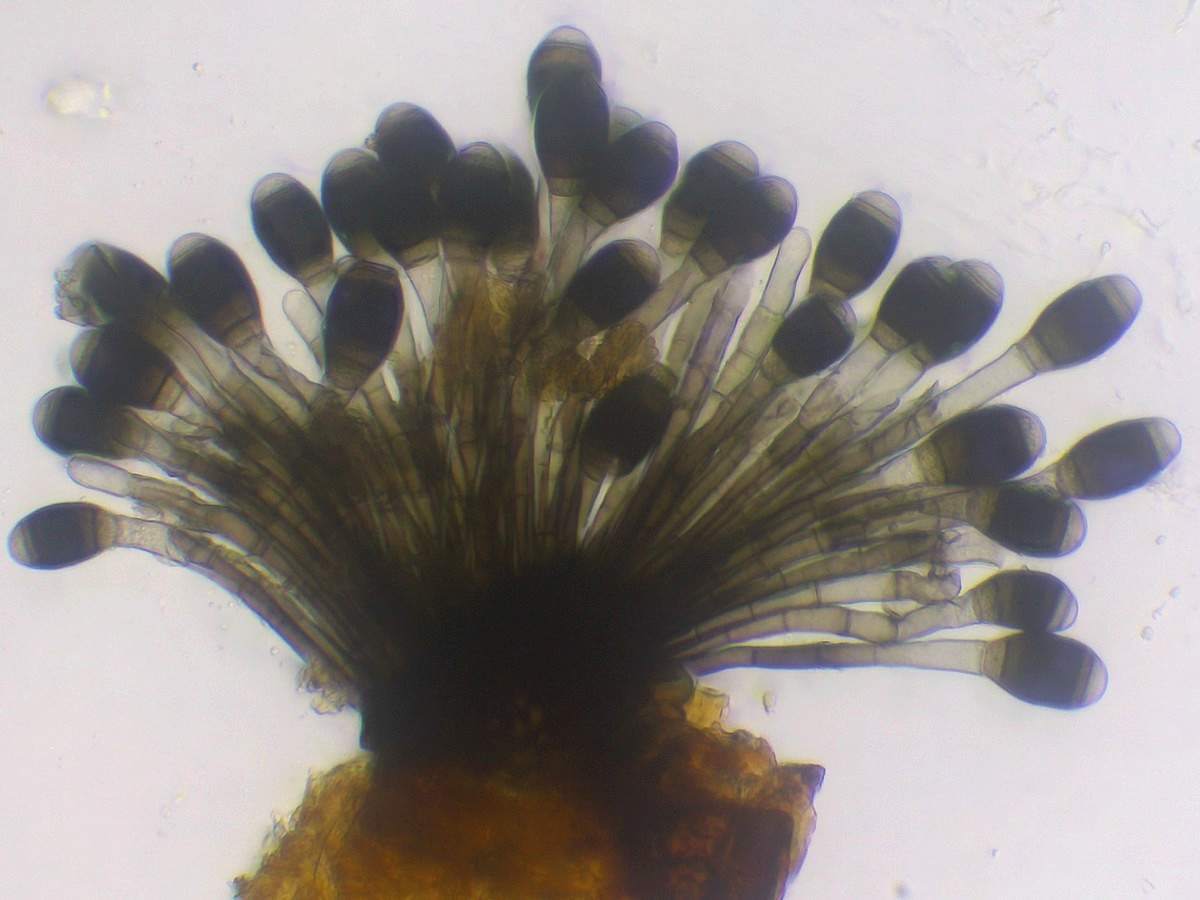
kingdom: Fungi
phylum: Ascomycota
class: Dothideomycetes
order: Pleosporales
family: Melanommataceae
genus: Phragmocephala
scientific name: Phragmocephala elliptica
